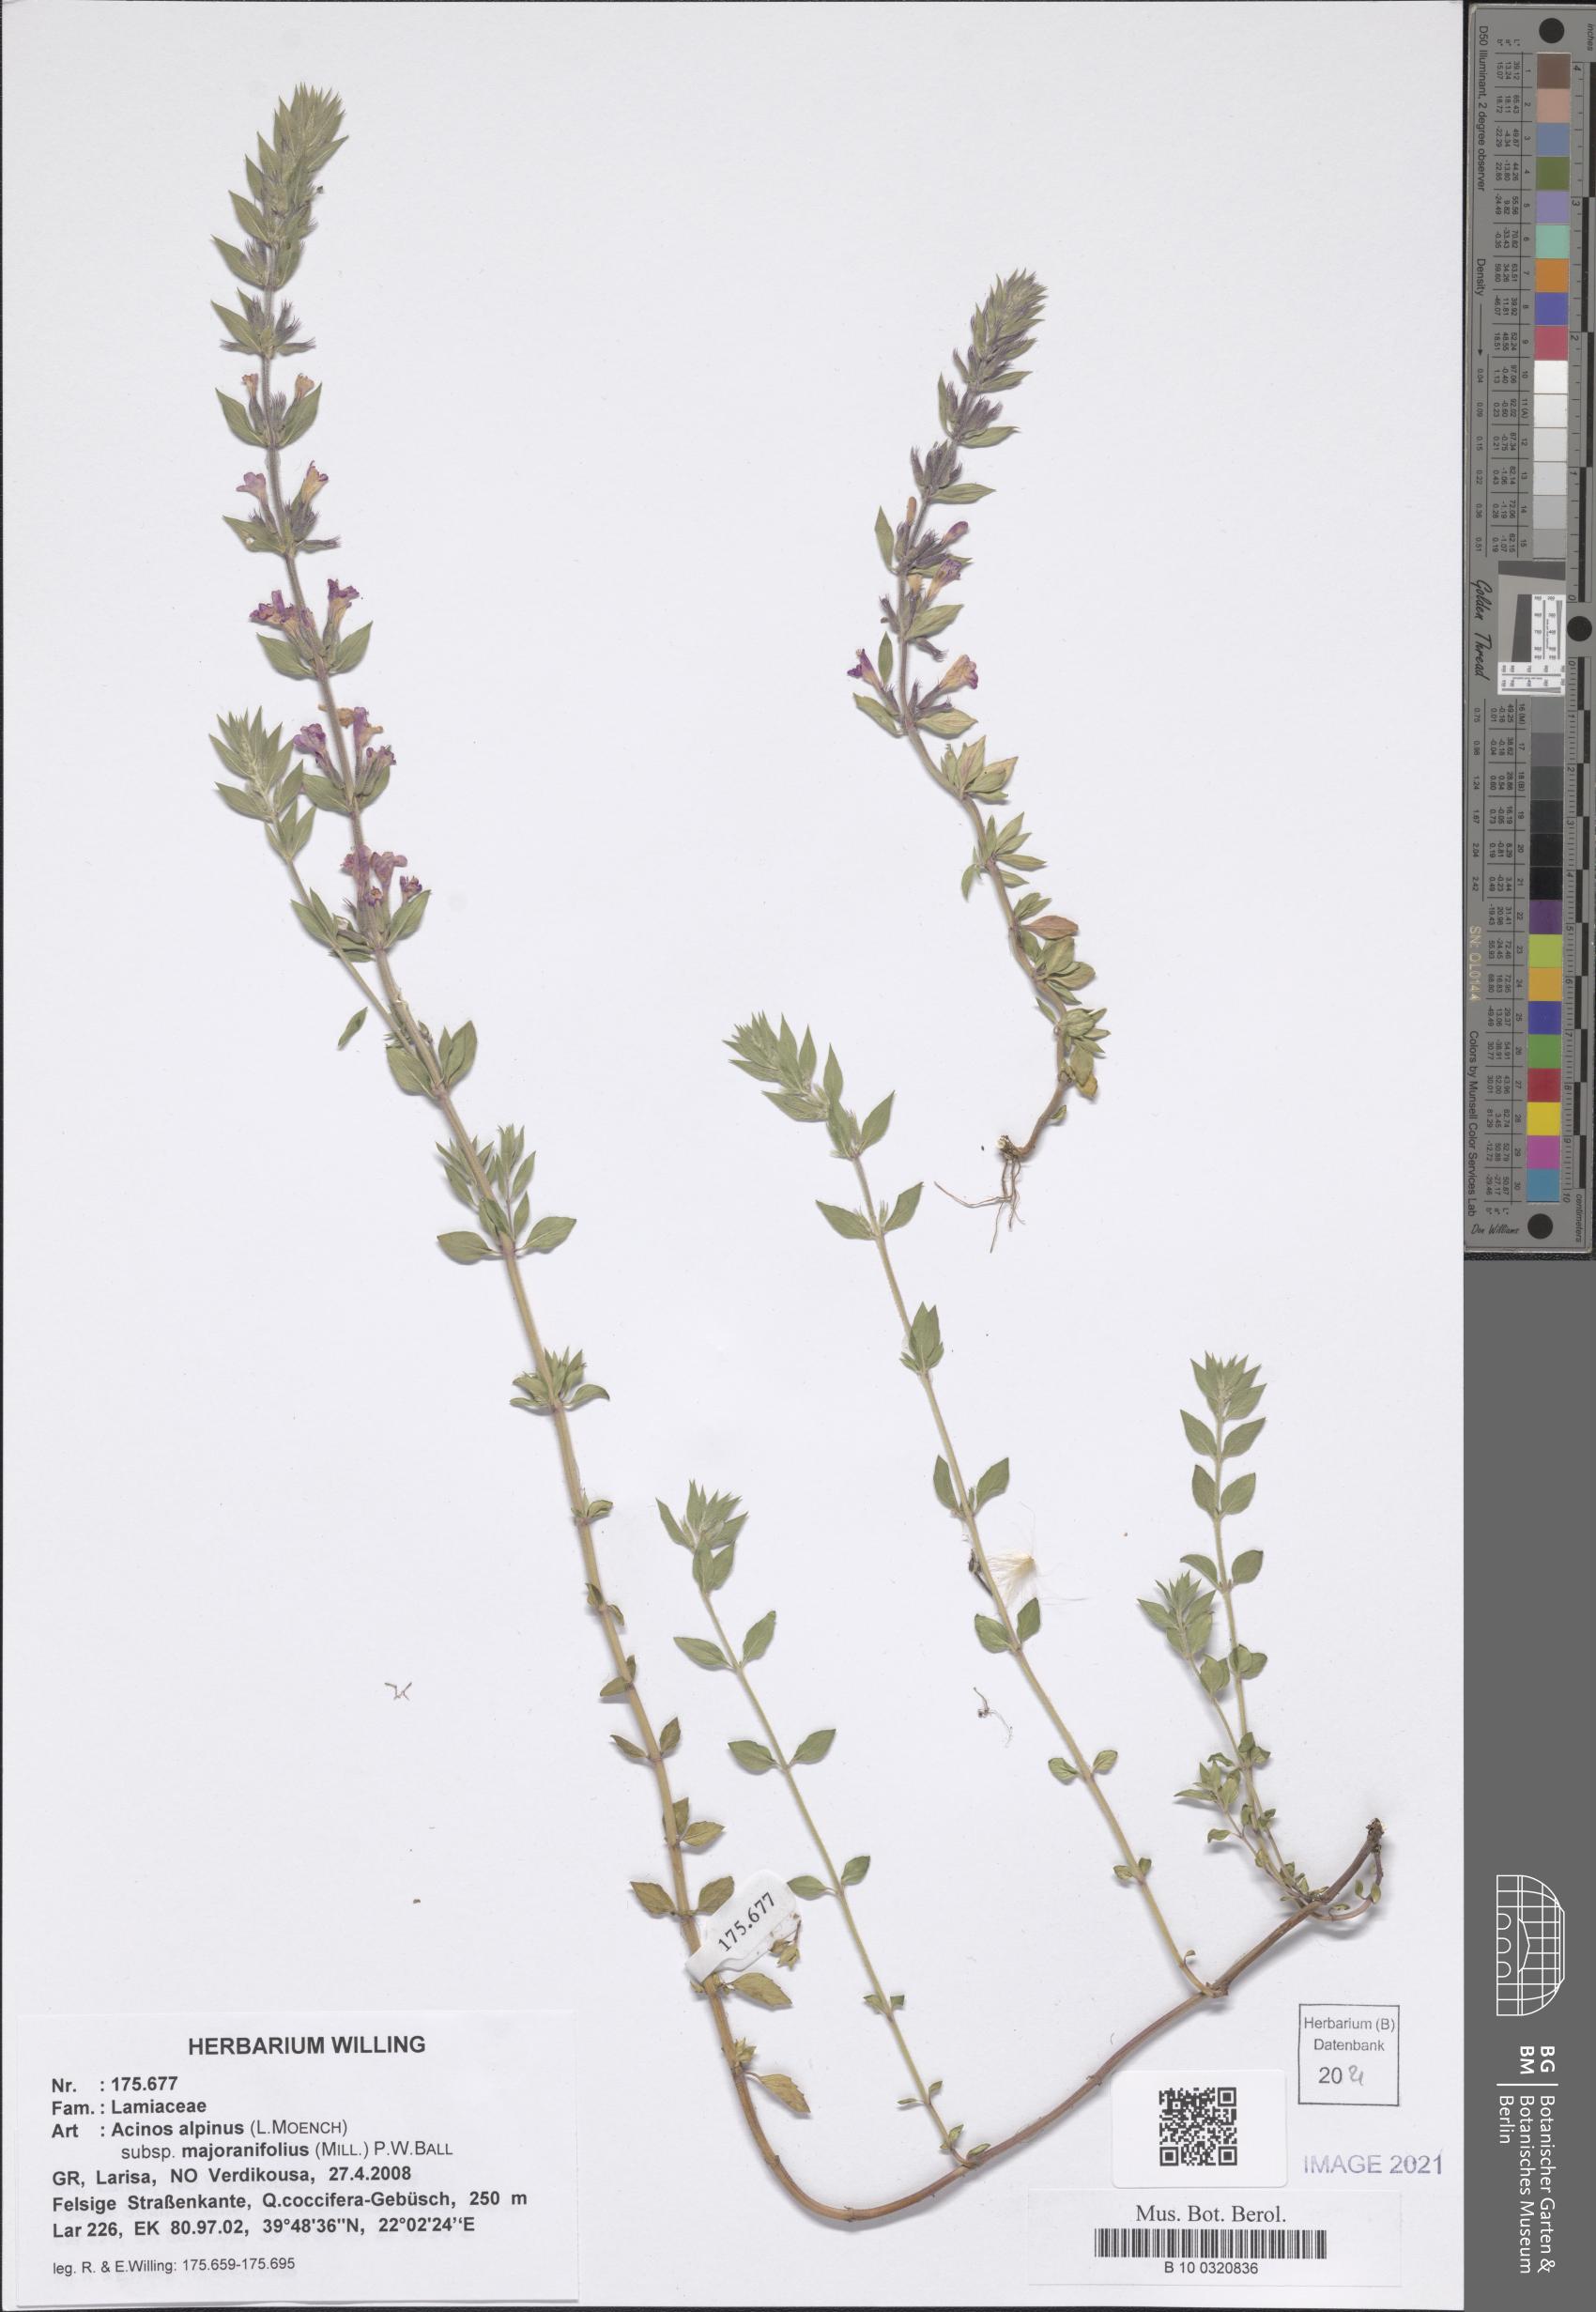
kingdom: Plantae
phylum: Tracheophyta
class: Magnoliopsida
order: Lamiales
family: Lamiaceae
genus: Clinopodium
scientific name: Clinopodium alpinum
